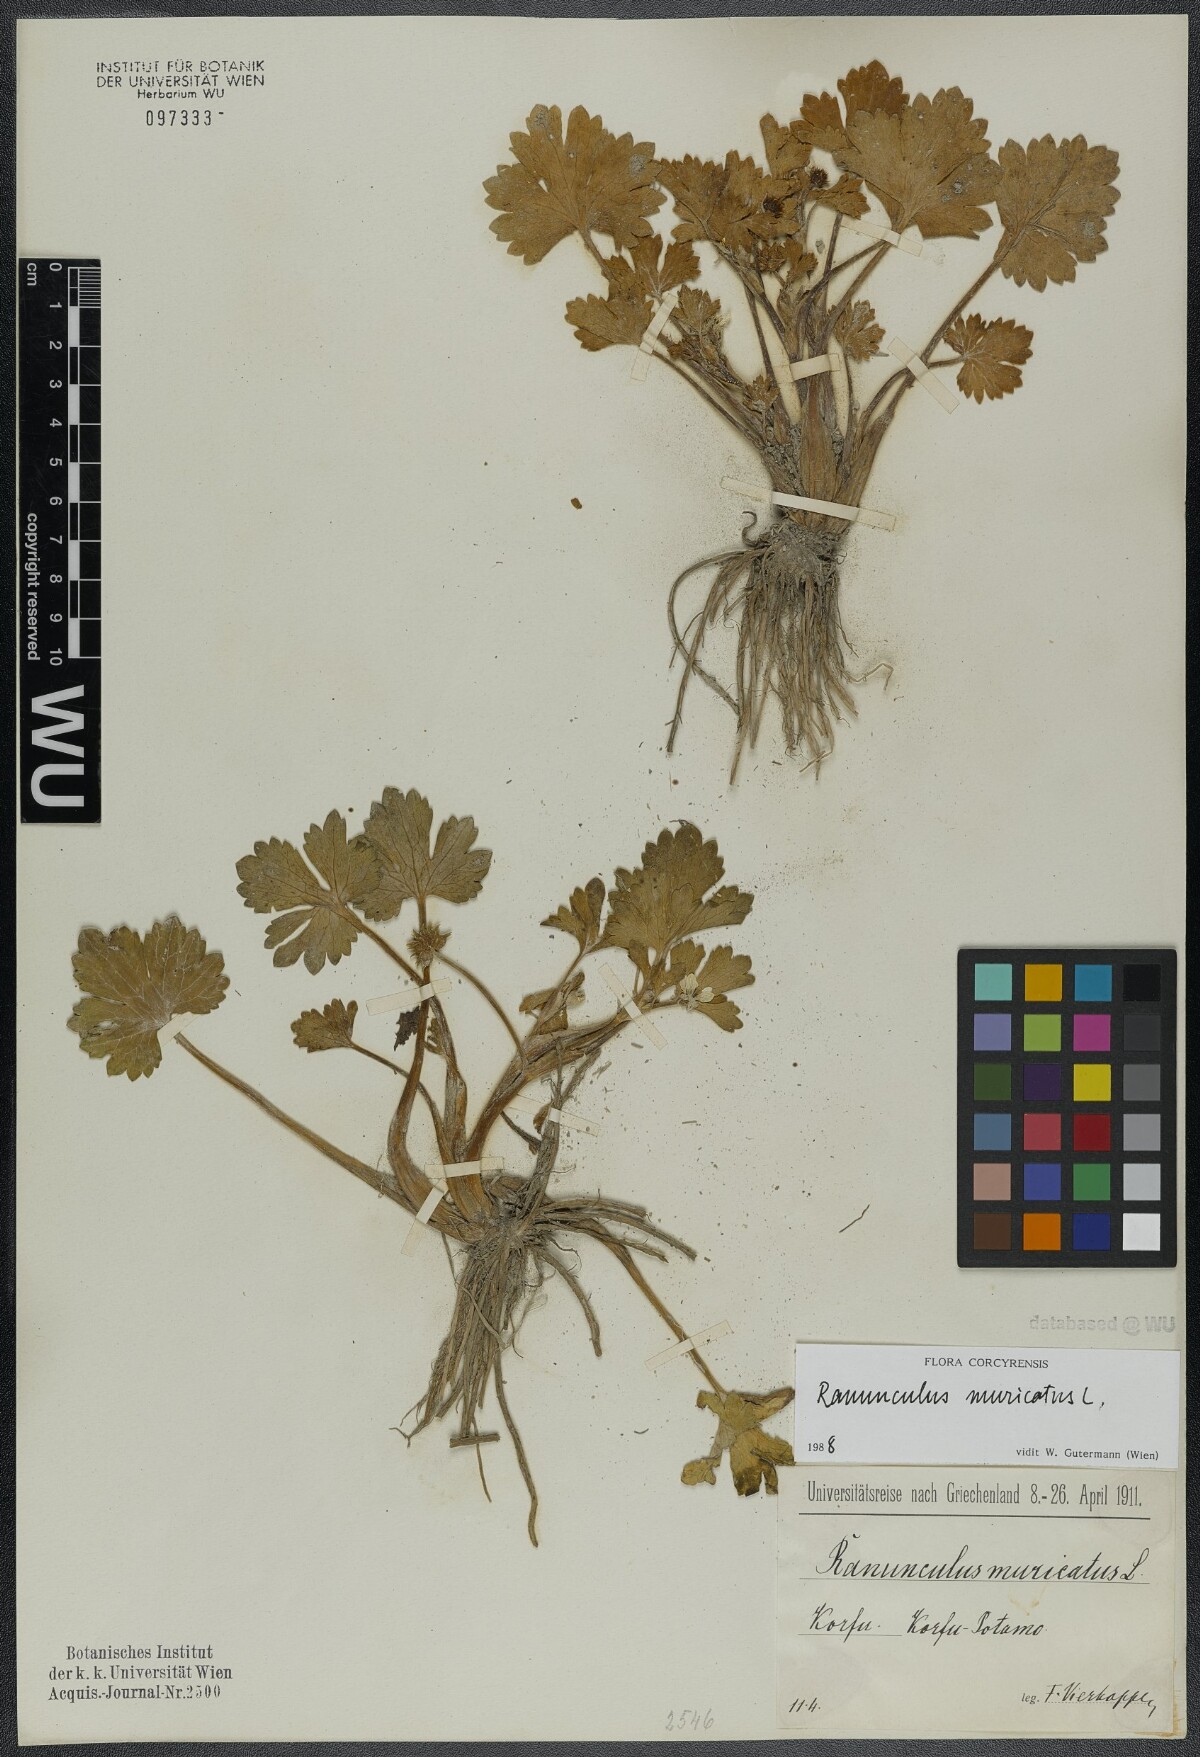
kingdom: Plantae
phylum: Tracheophyta
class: Magnoliopsida
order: Ranunculales
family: Ranunculaceae
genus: Ranunculus
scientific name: Ranunculus muricatus
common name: Rough-fruited buttercup
